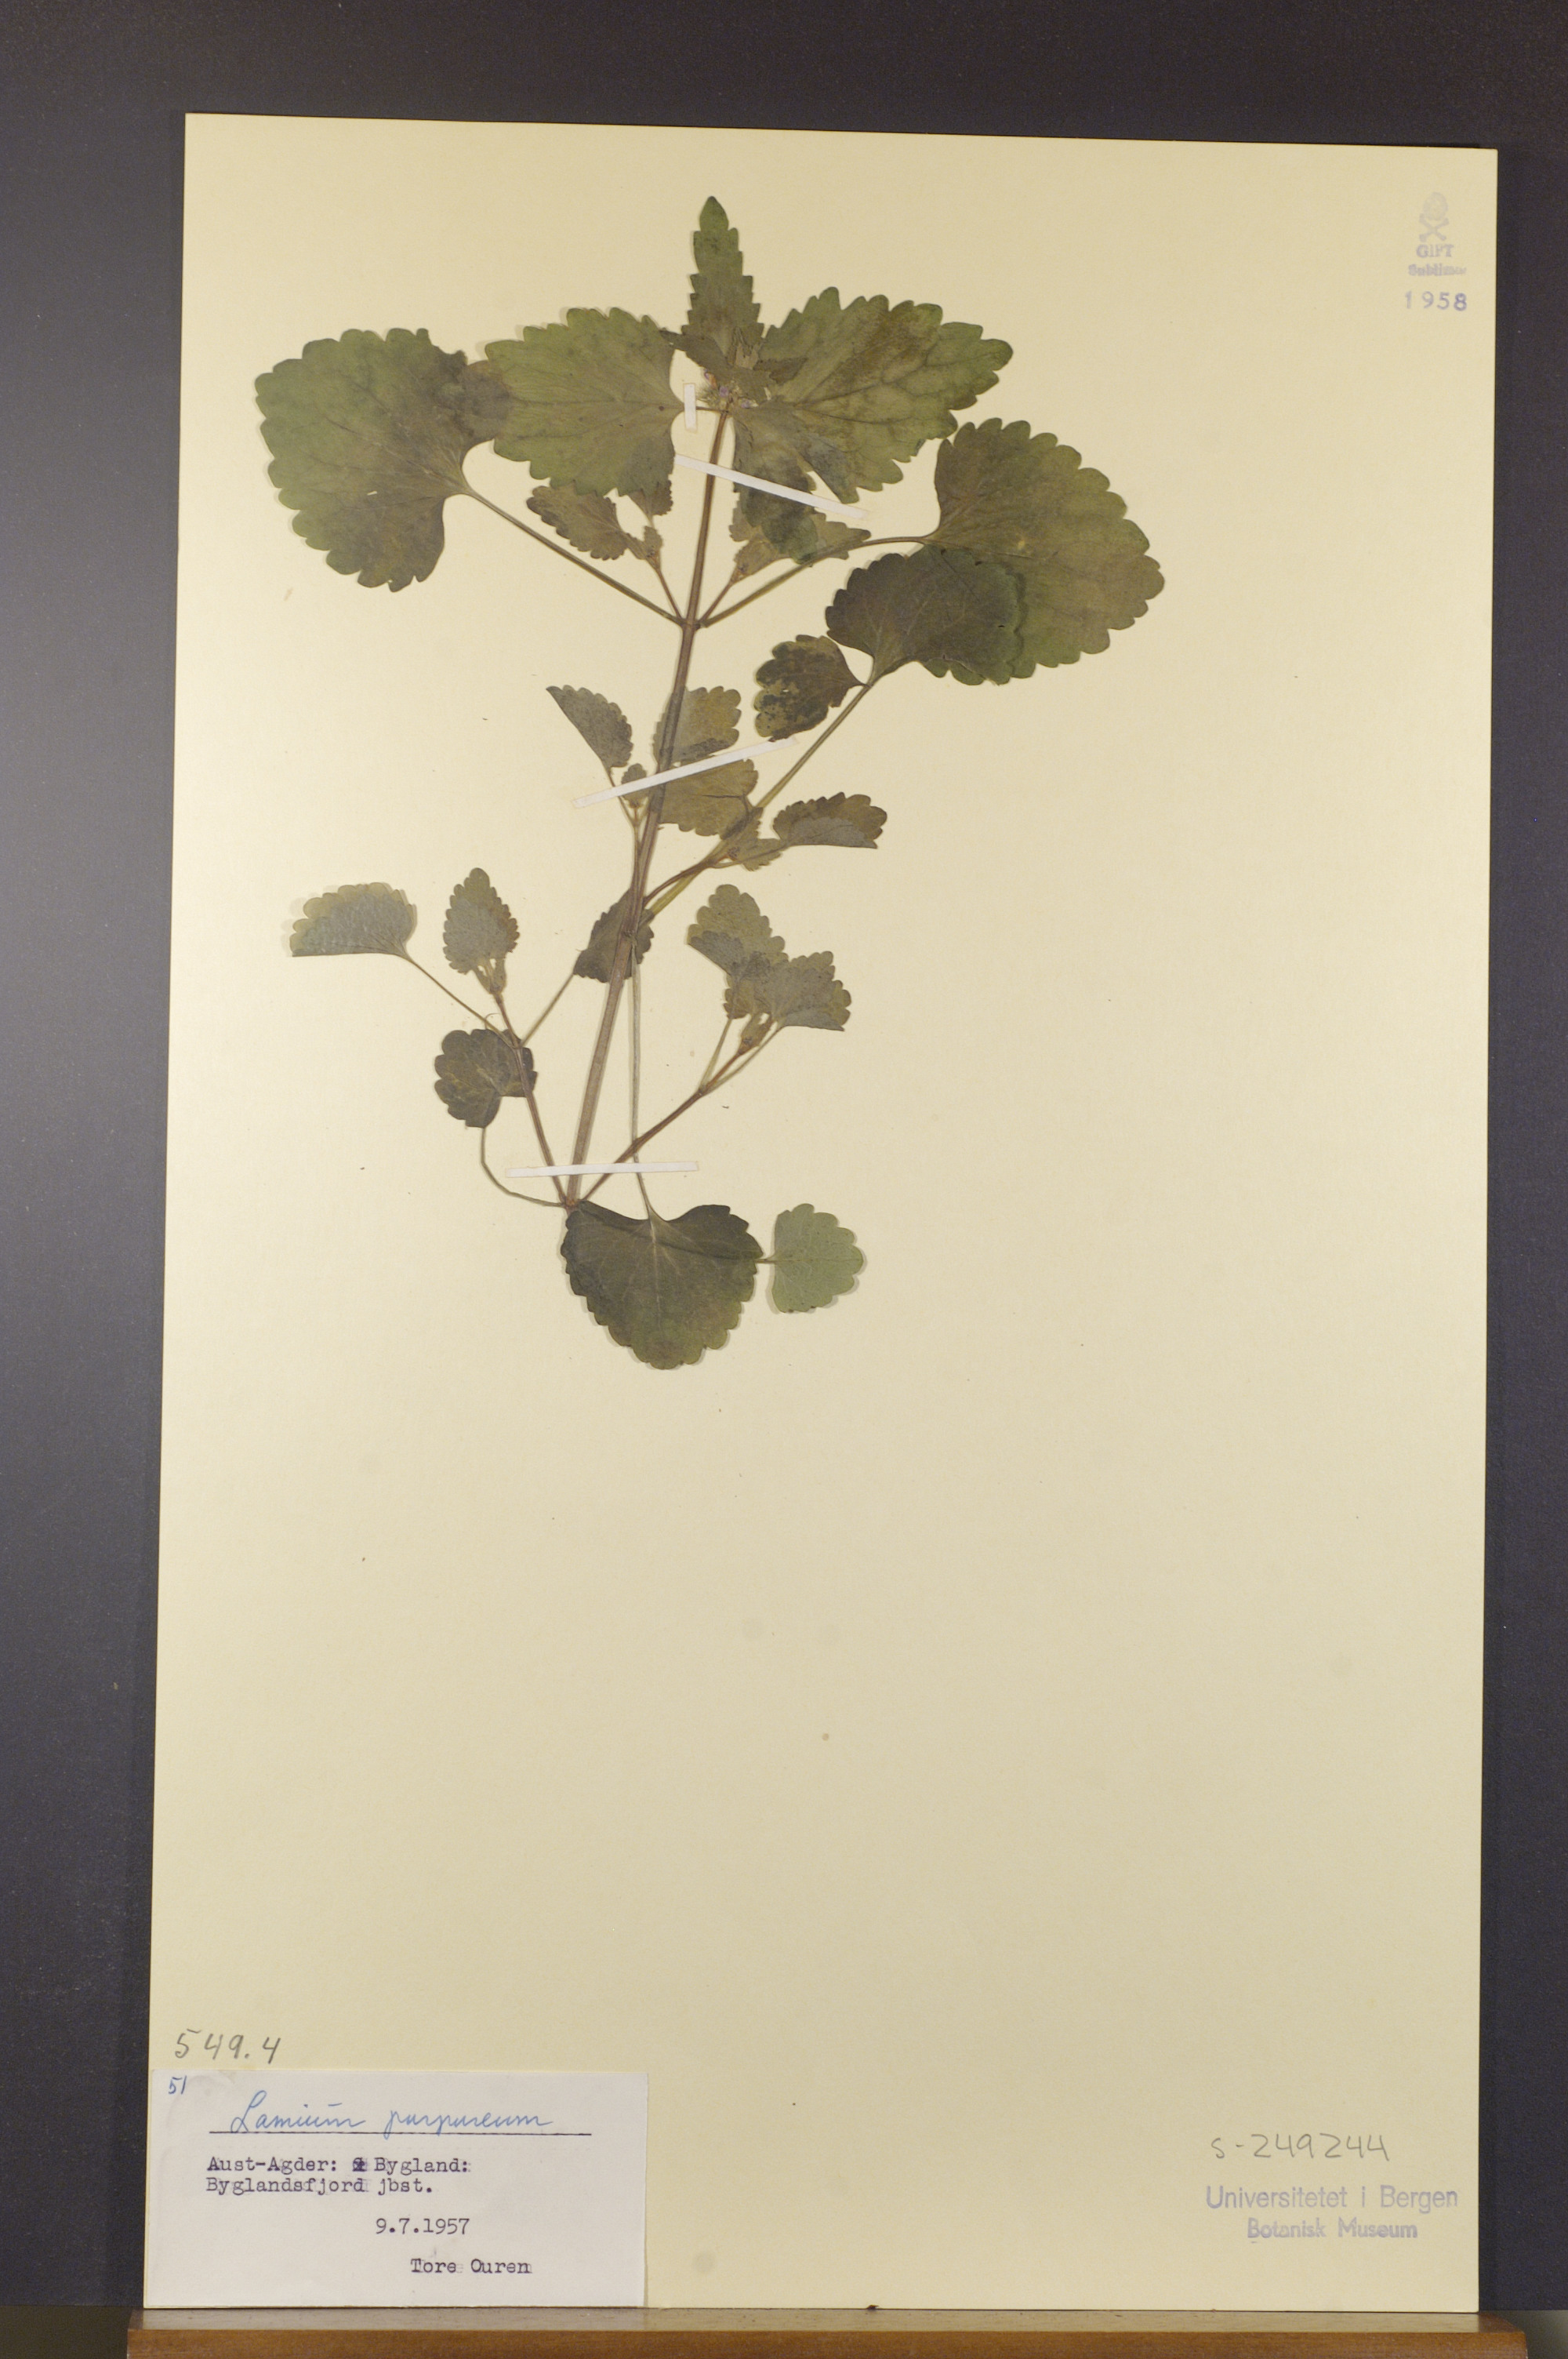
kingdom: Plantae
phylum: Tracheophyta
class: Magnoliopsida
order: Lamiales
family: Lamiaceae
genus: Lamium
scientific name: Lamium purpureum
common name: Red dead-nettle
